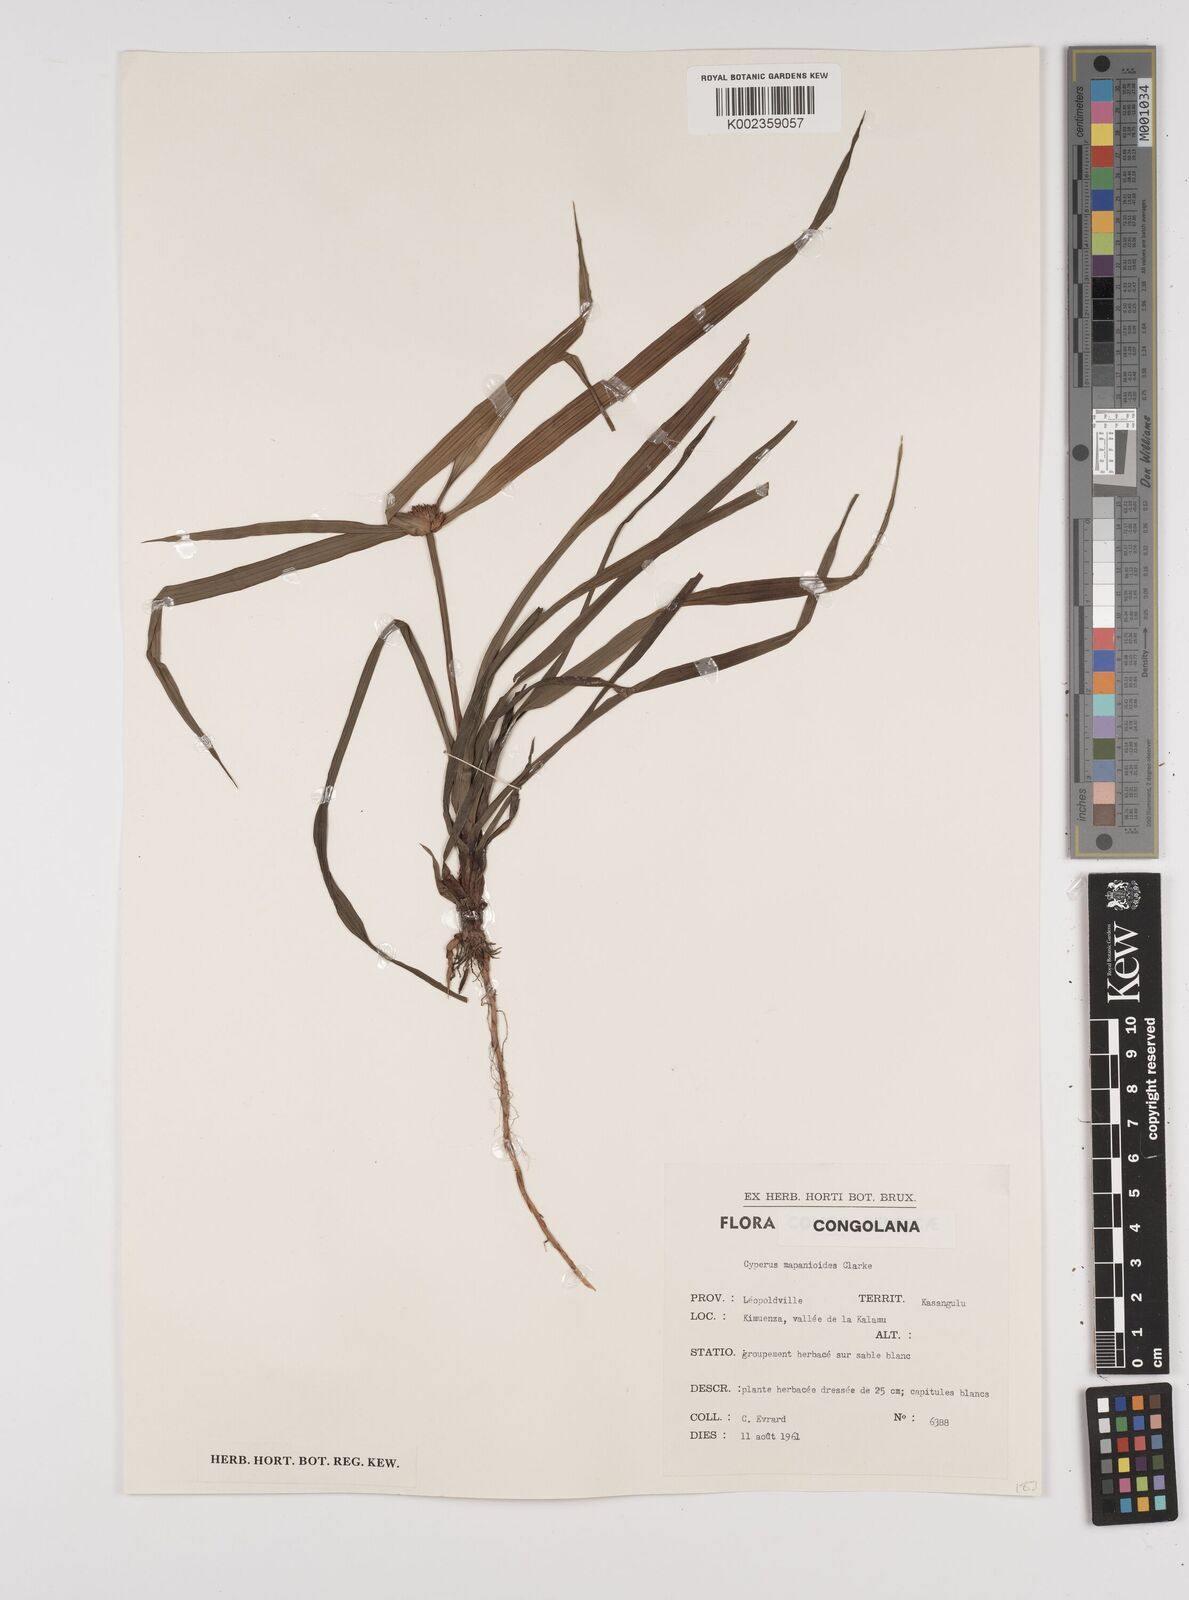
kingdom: Plantae
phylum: Tracheophyta
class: Liliopsida
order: Poales
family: Cyperaceae
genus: Cyperus
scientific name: Cyperus mapanioides
